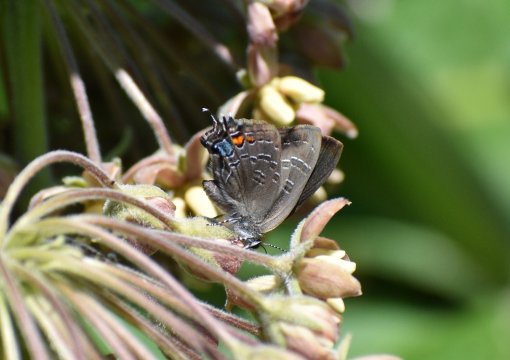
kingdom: Animalia
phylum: Arthropoda
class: Insecta
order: Lepidoptera
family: Lycaenidae
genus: Satyrium
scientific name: Satyrium liparops
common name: Striped Hairstreak
